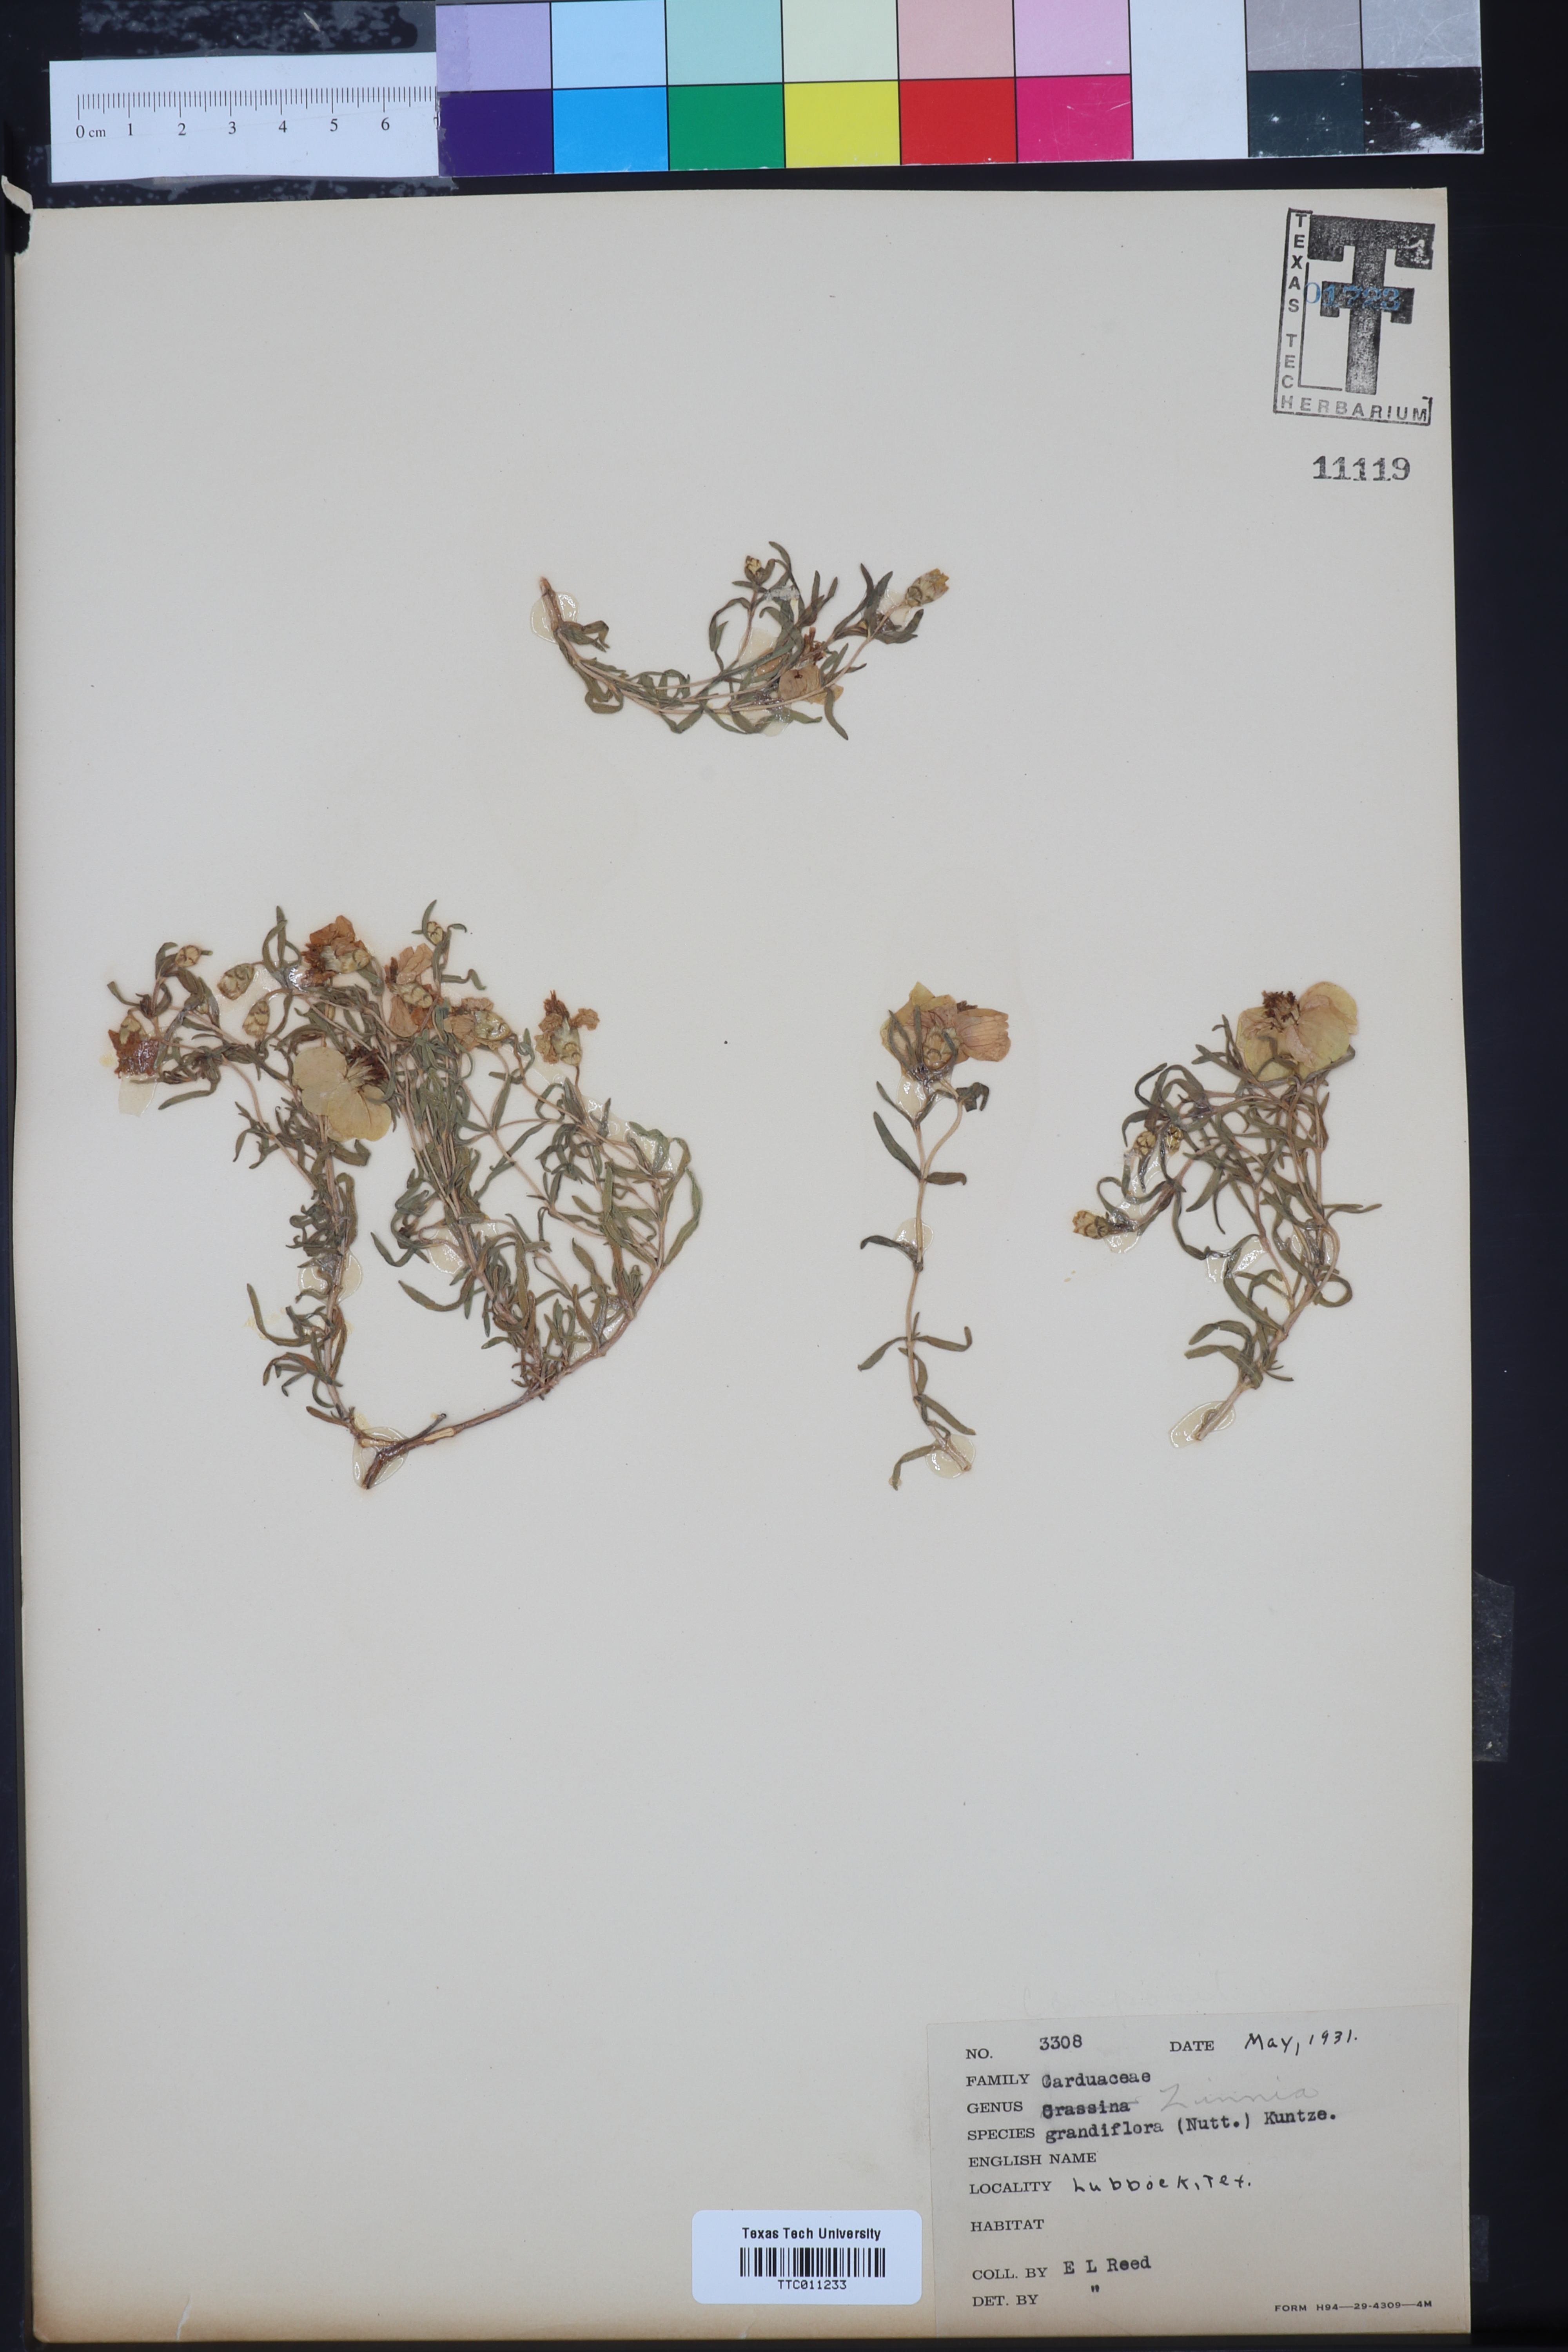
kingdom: Plantae
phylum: Tracheophyta
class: Magnoliopsida
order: Asterales
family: Asteraceae
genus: Zinnia
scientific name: Zinnia grandiflora
